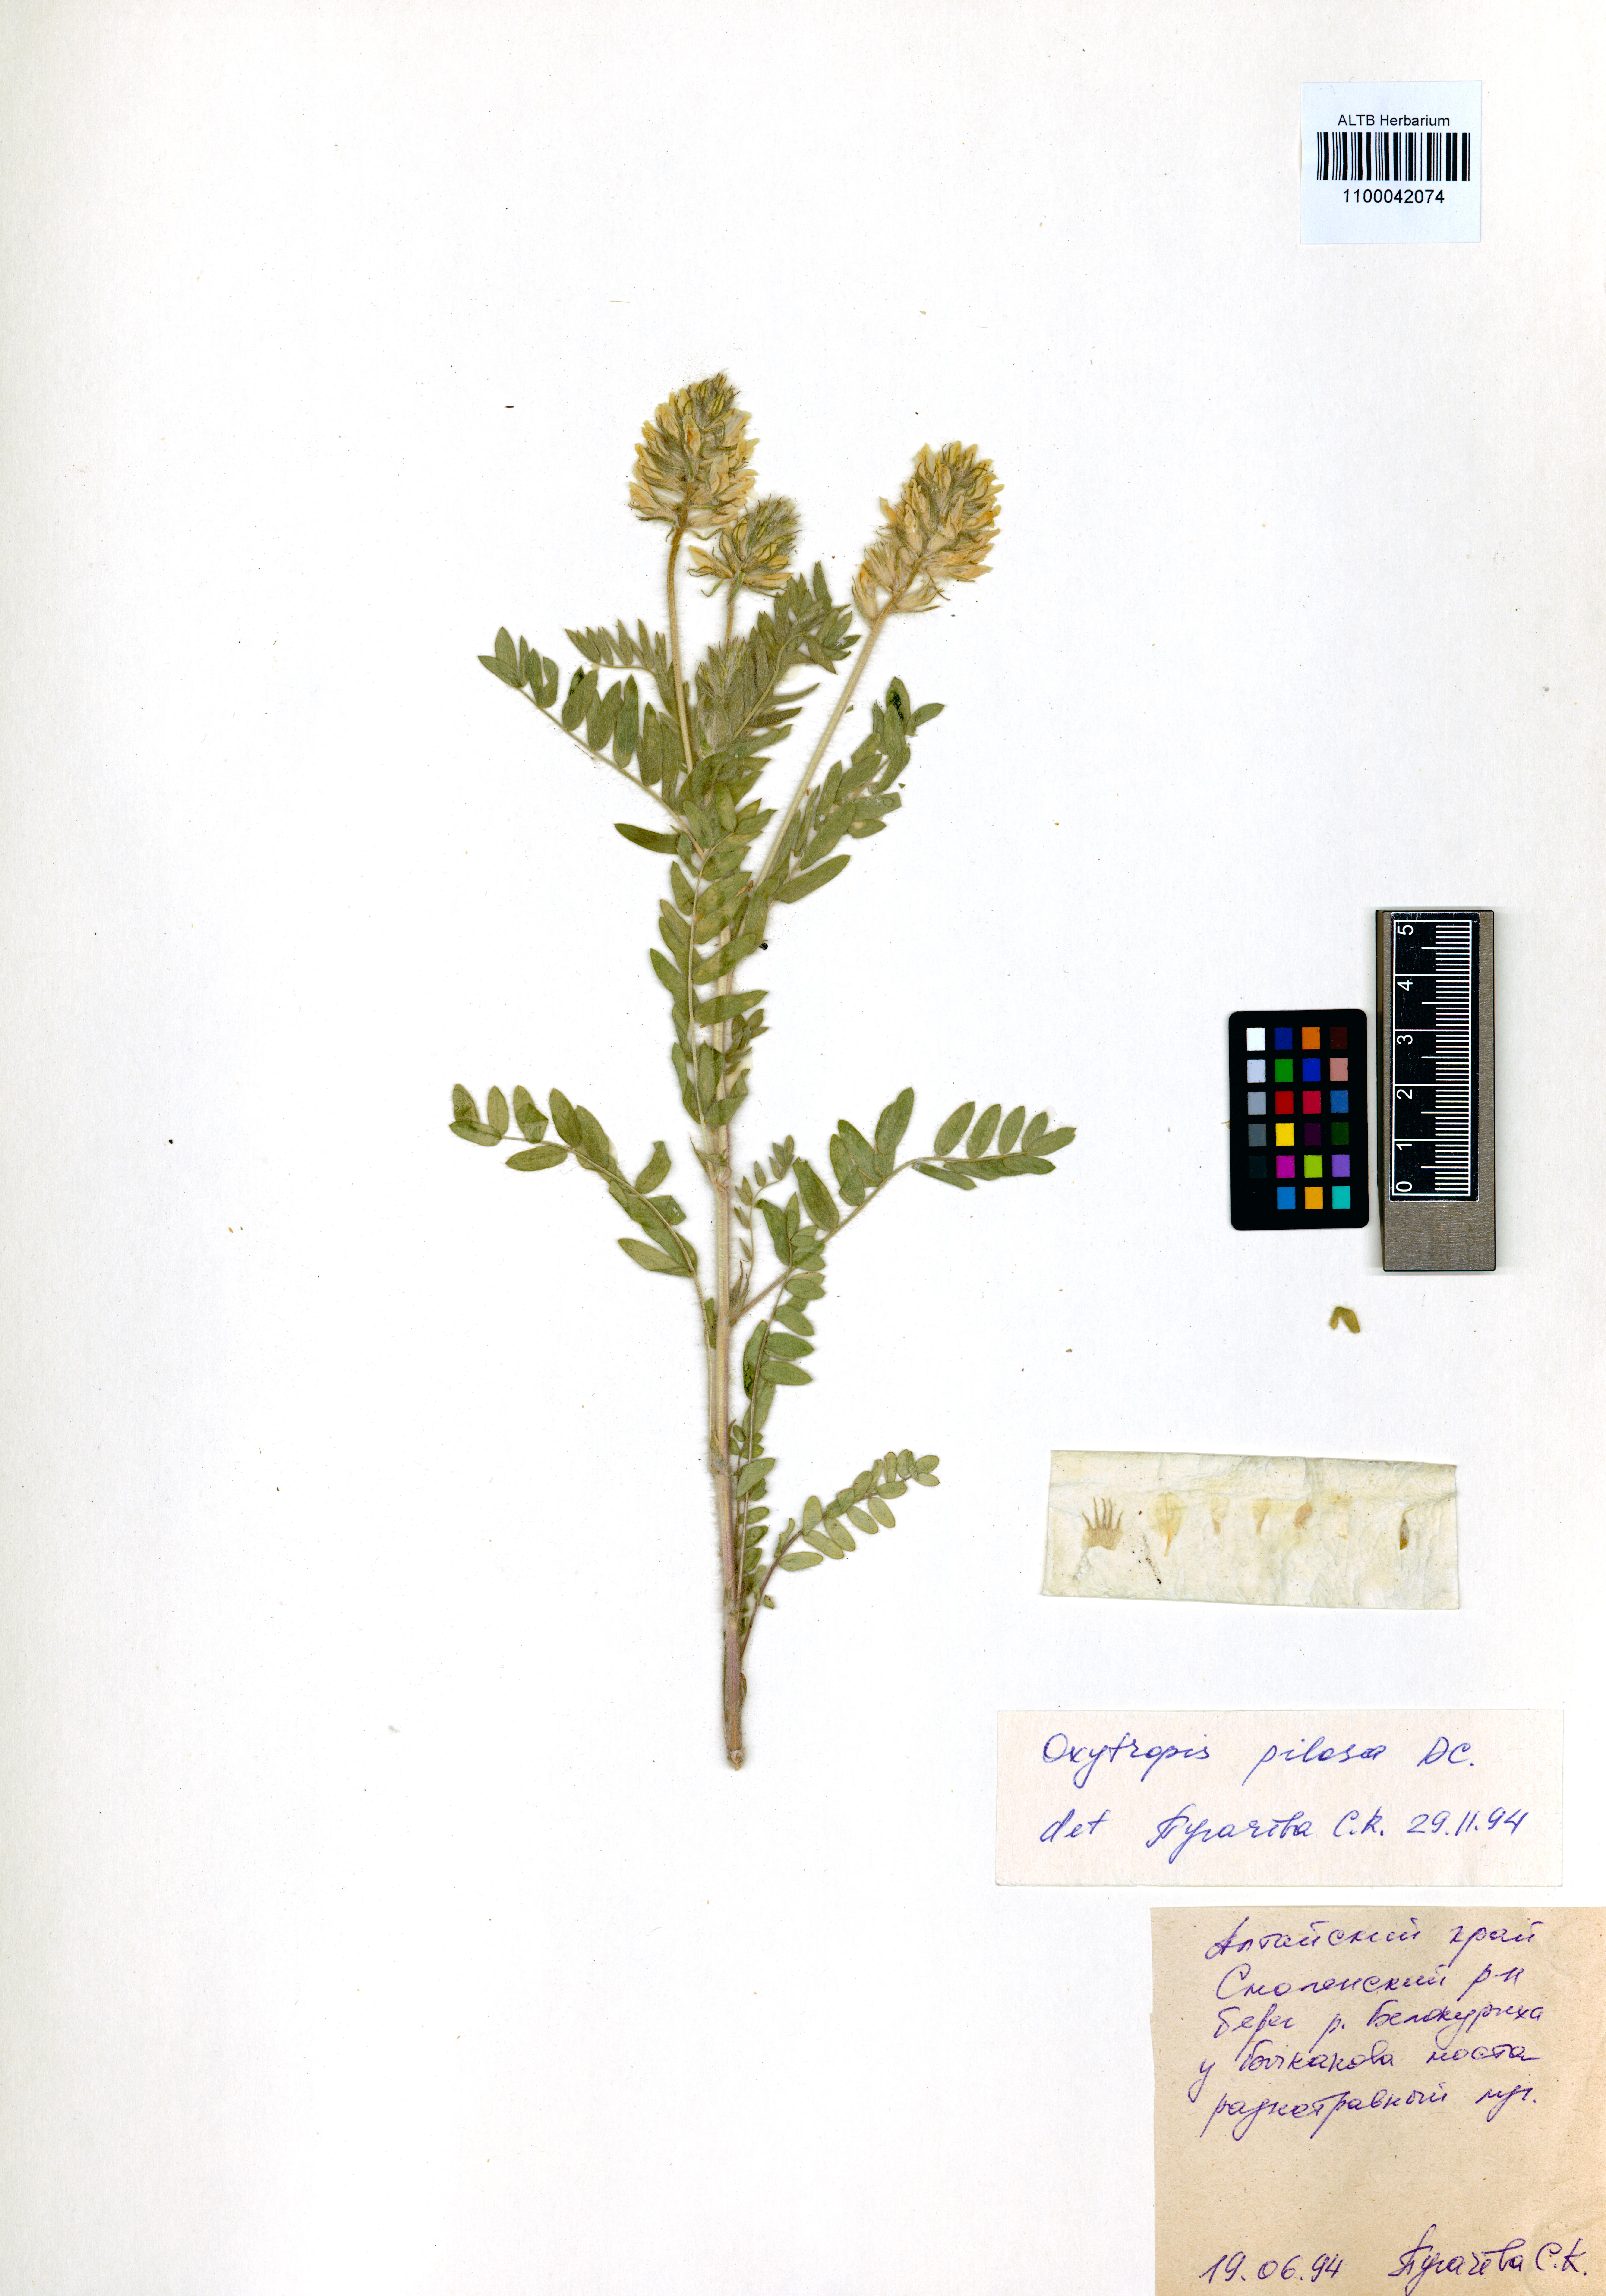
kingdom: Plantae
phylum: Tracheophyta
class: Magnoliopsida
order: Fabales
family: Fabaceae
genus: Oxytropis
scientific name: Oxytropis pilosa
